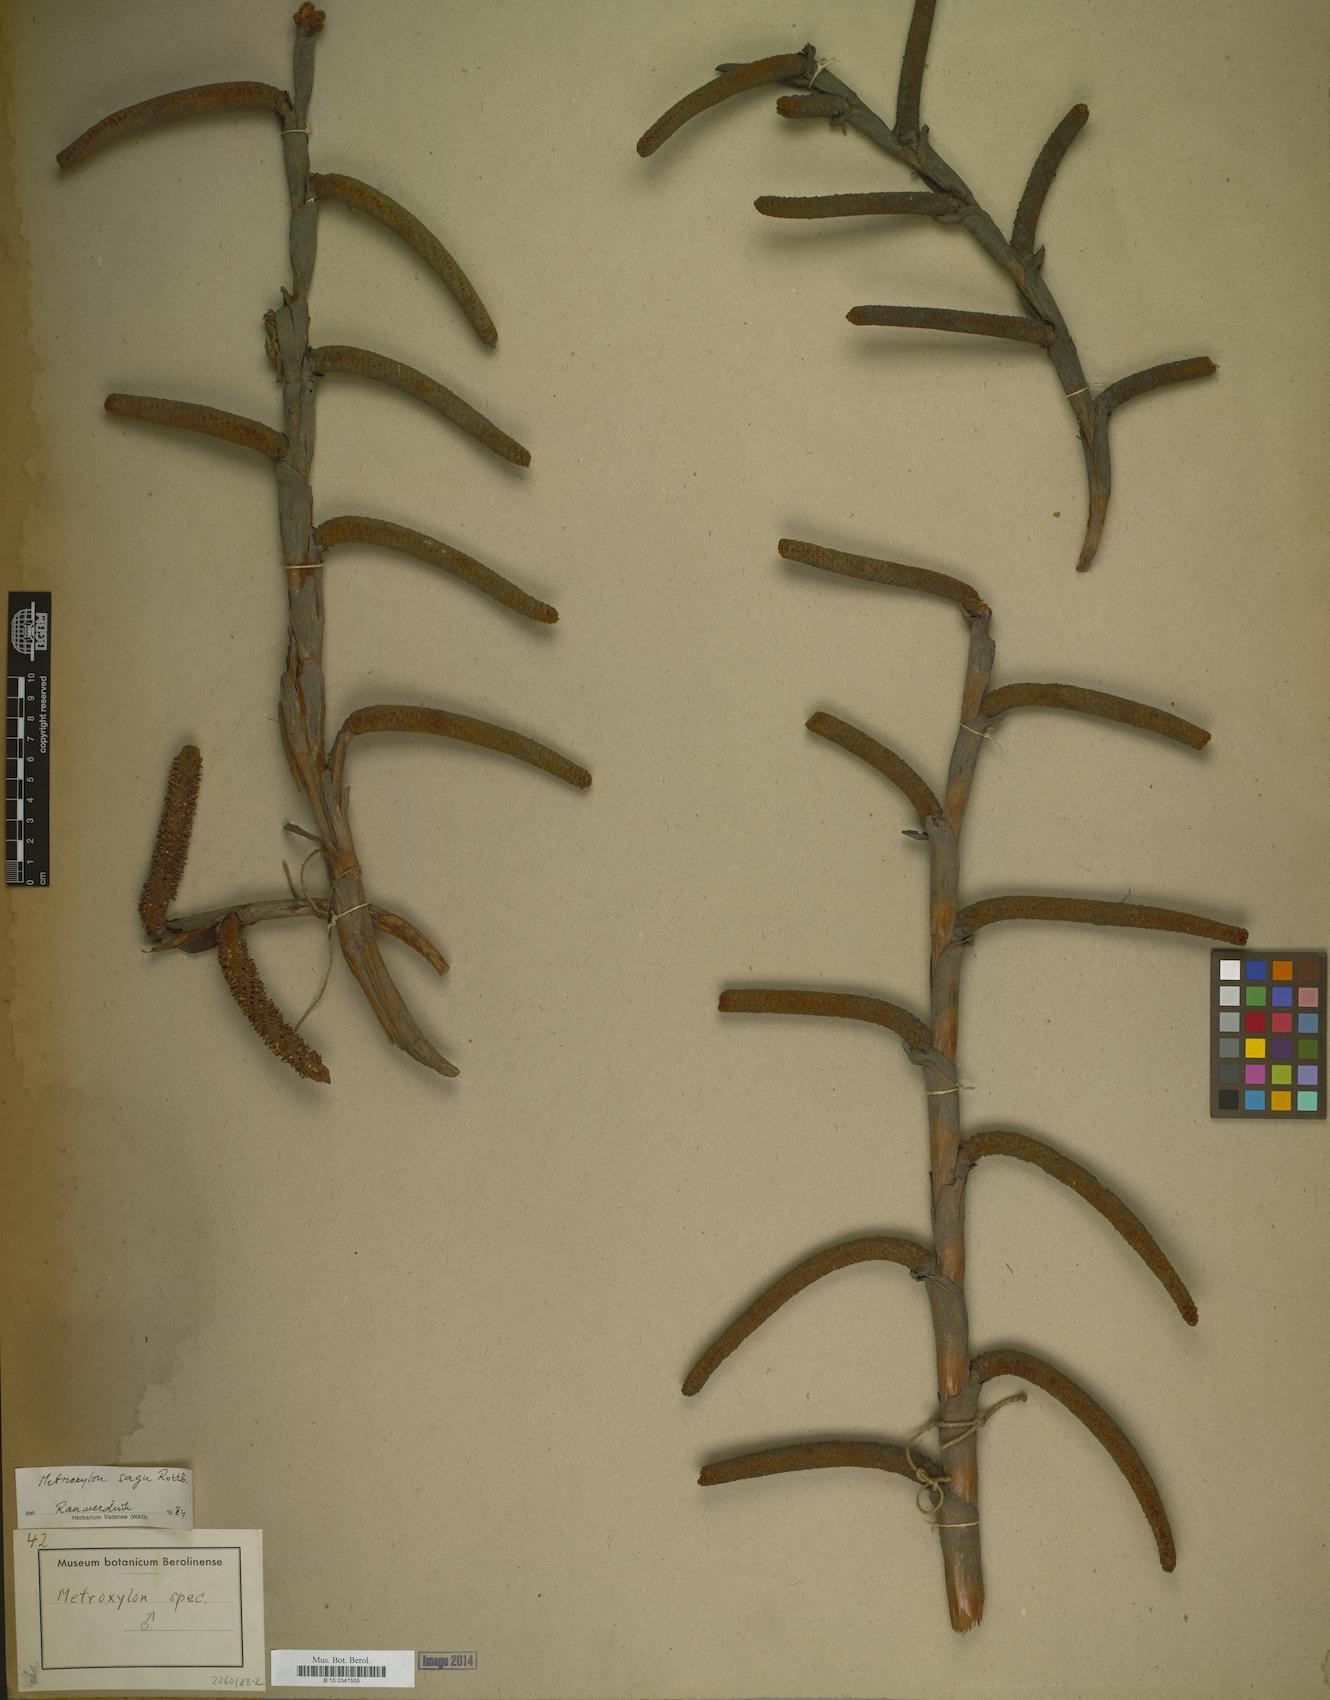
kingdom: Plantae
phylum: Tracheophyta
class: Liliopsida
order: Arecales
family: Arecaceae
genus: Metroxylon
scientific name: Metroxylon
